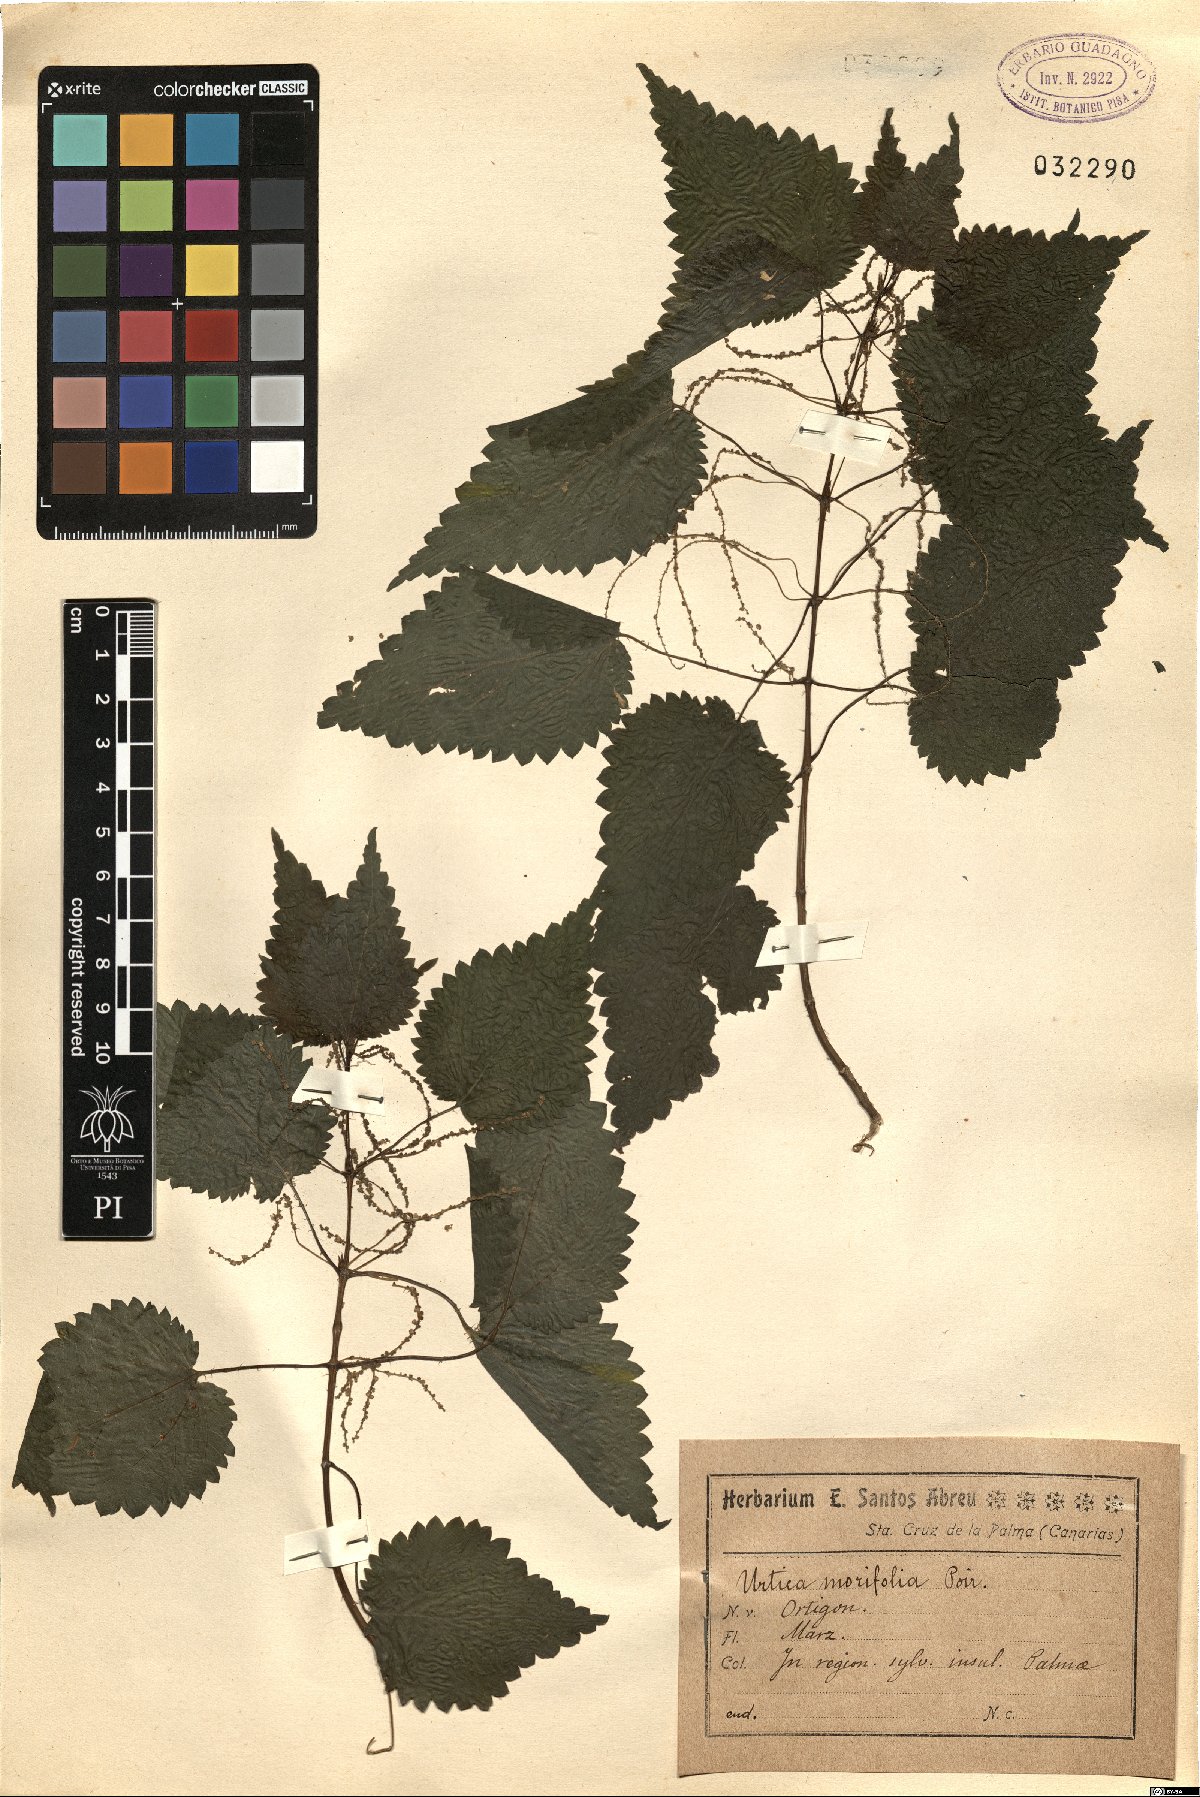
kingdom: Plantae
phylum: Tracheophyta
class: Magnoliopsida
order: Rosales
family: Urticaceae
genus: Urtica
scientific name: Urtica morifolia
